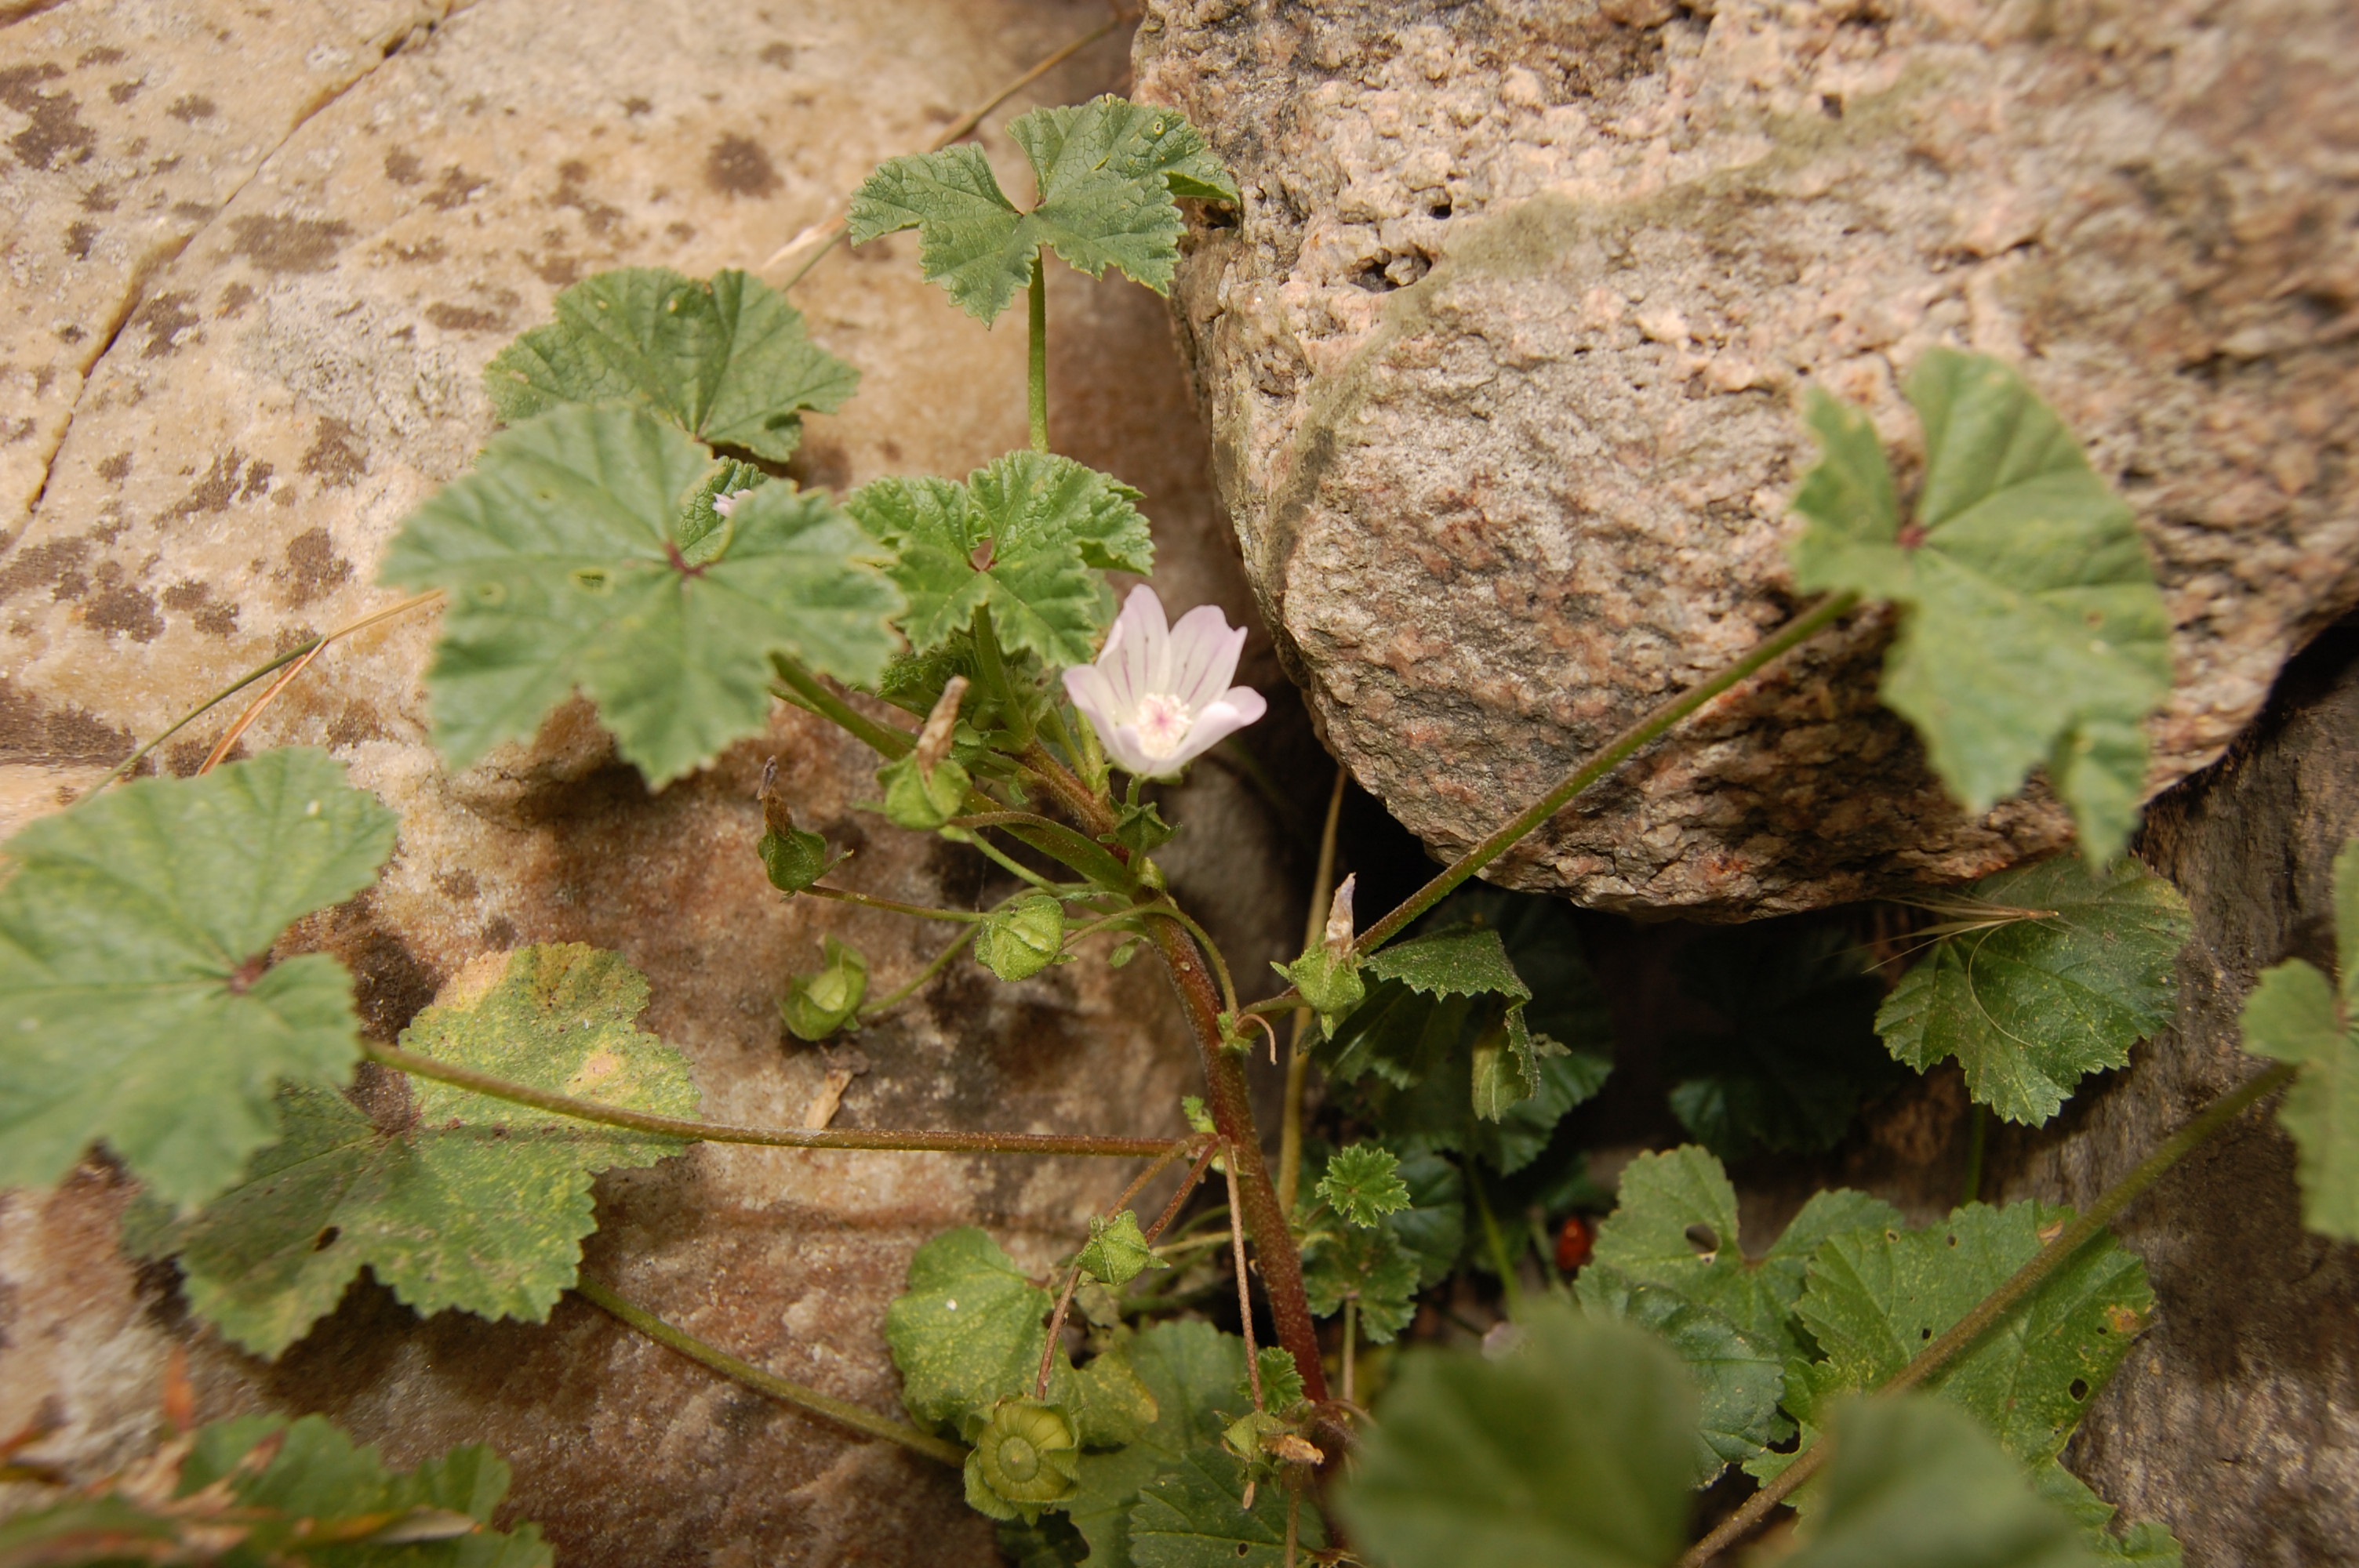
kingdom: Plantae
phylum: Tracheophyta
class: Magnoliopsida
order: Malvales
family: Malvaceae
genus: Malva
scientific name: Malva pusilla
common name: Small mallow
